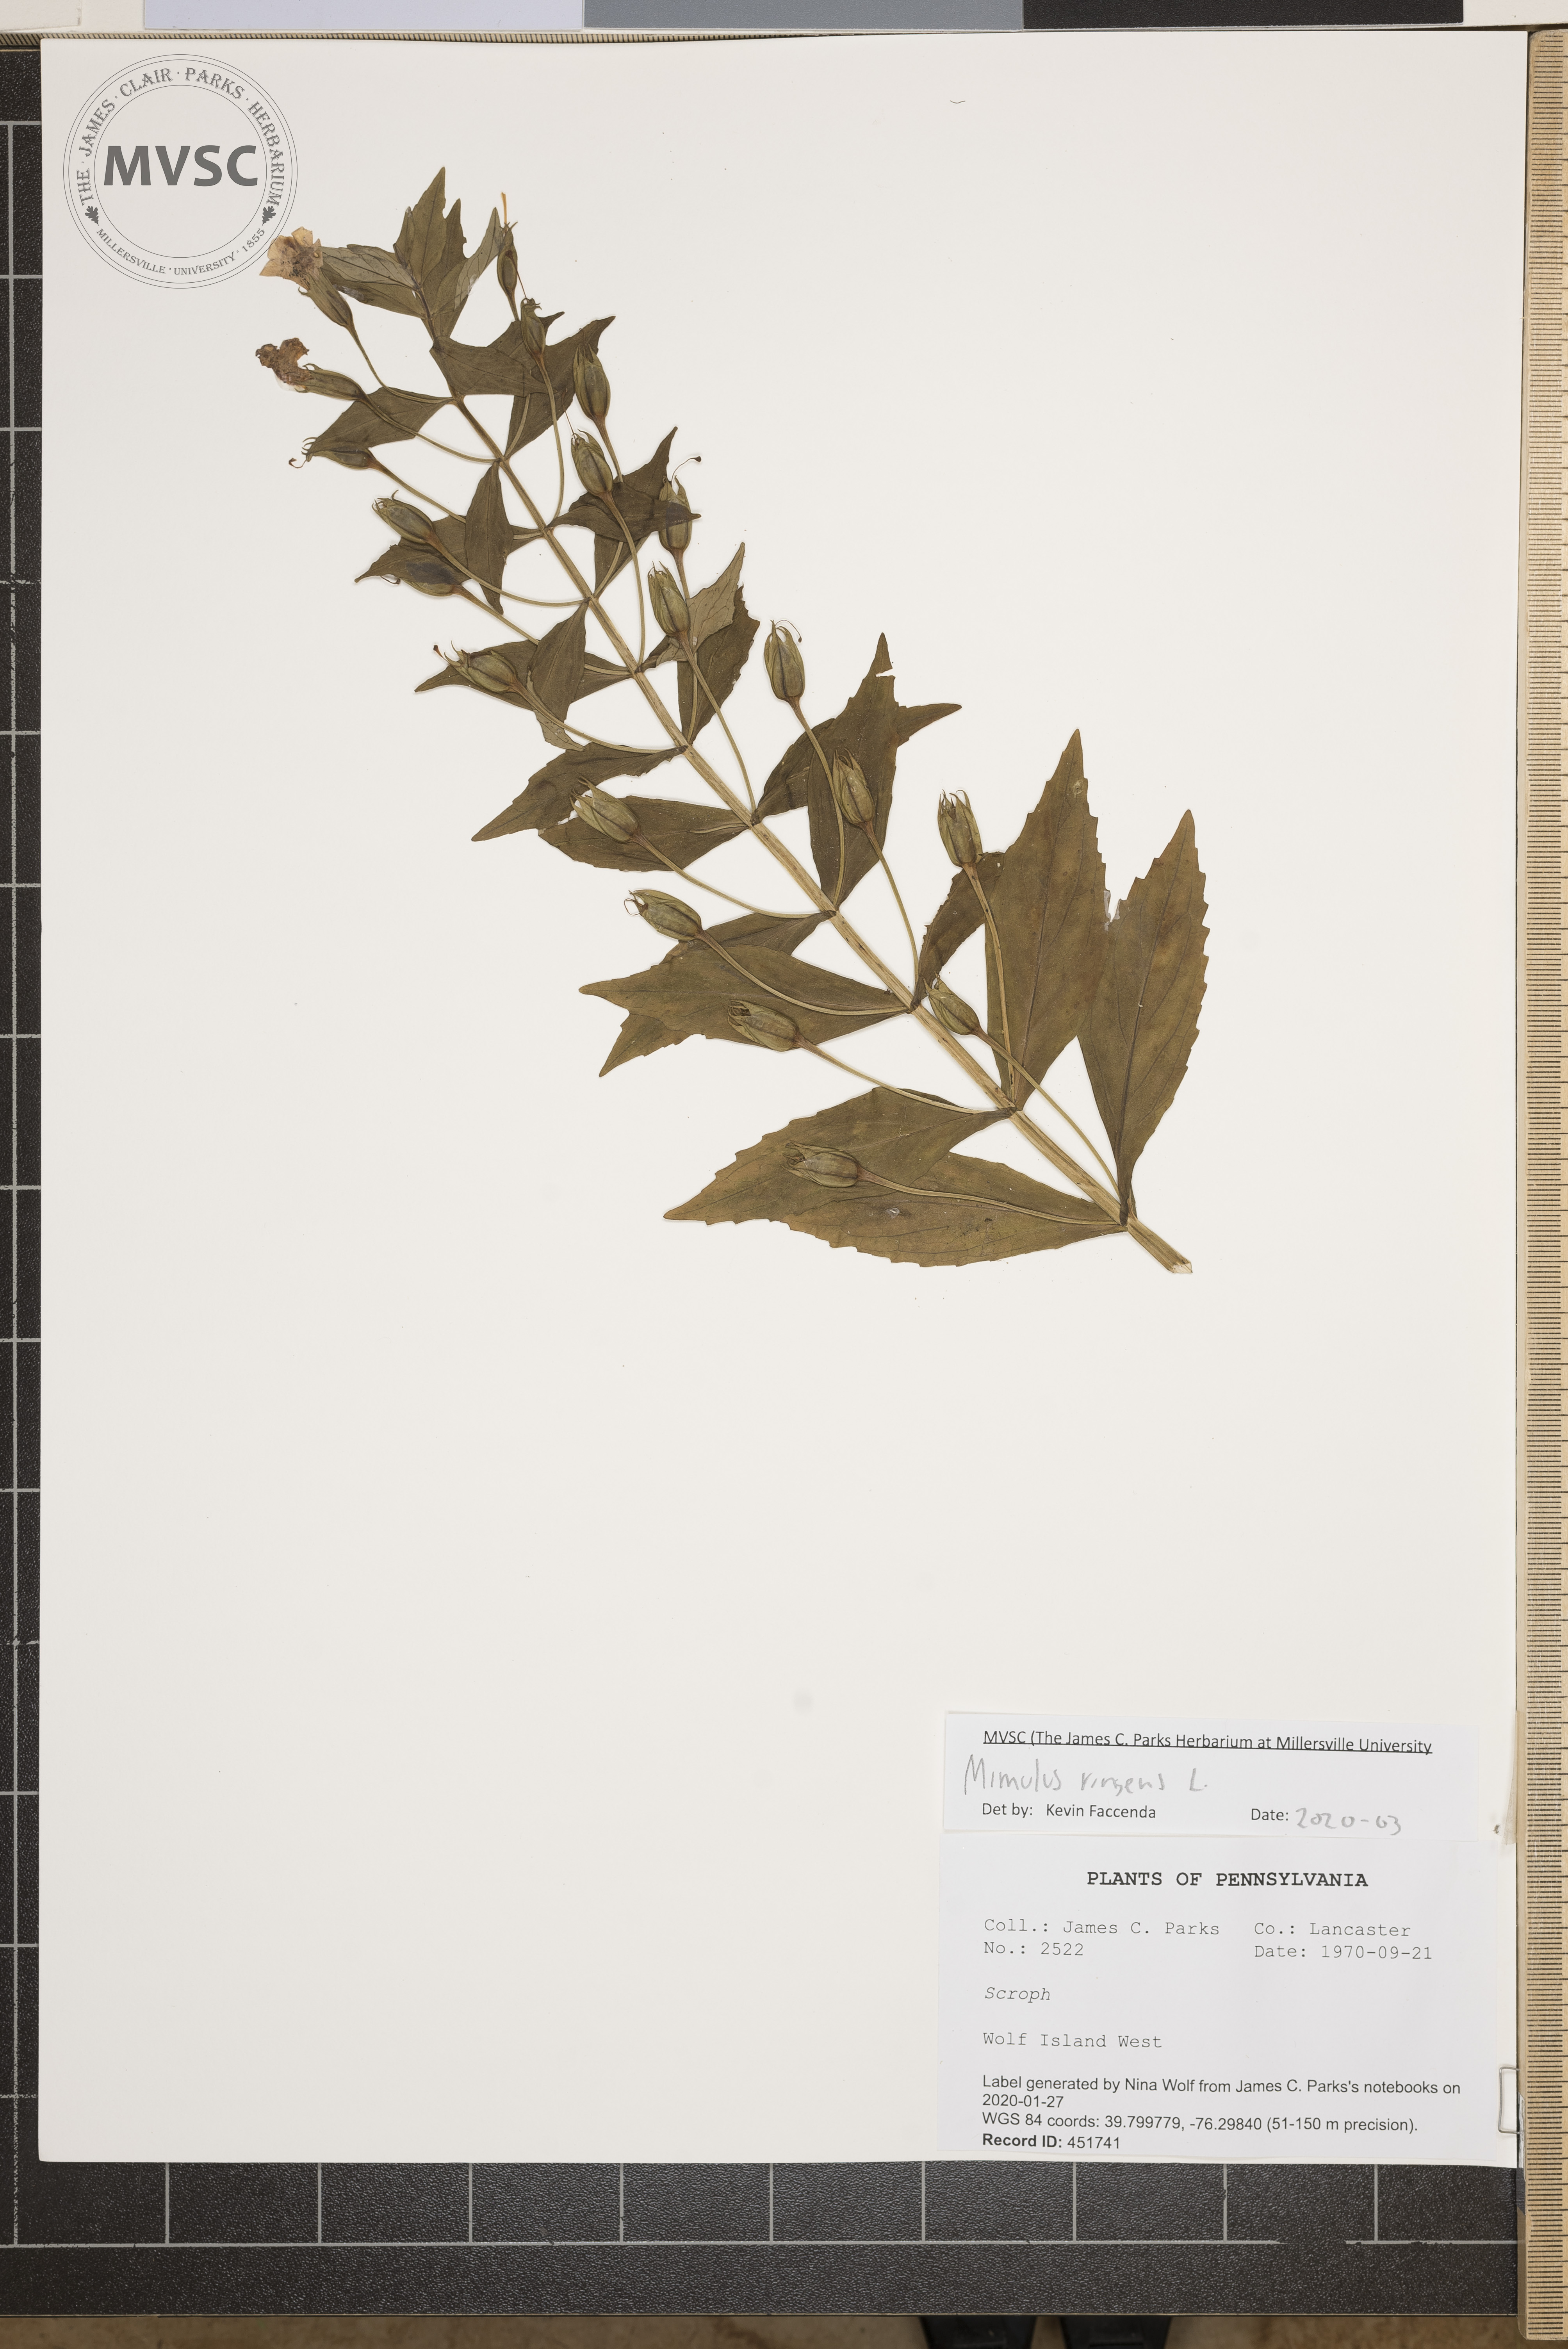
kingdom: Plantae
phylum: Tracheophyta
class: Magnoliopsida
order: Lamiales
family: Phrymaceae
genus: Mimulus
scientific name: Mimulus ringens
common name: Allegheny monkeyflower
